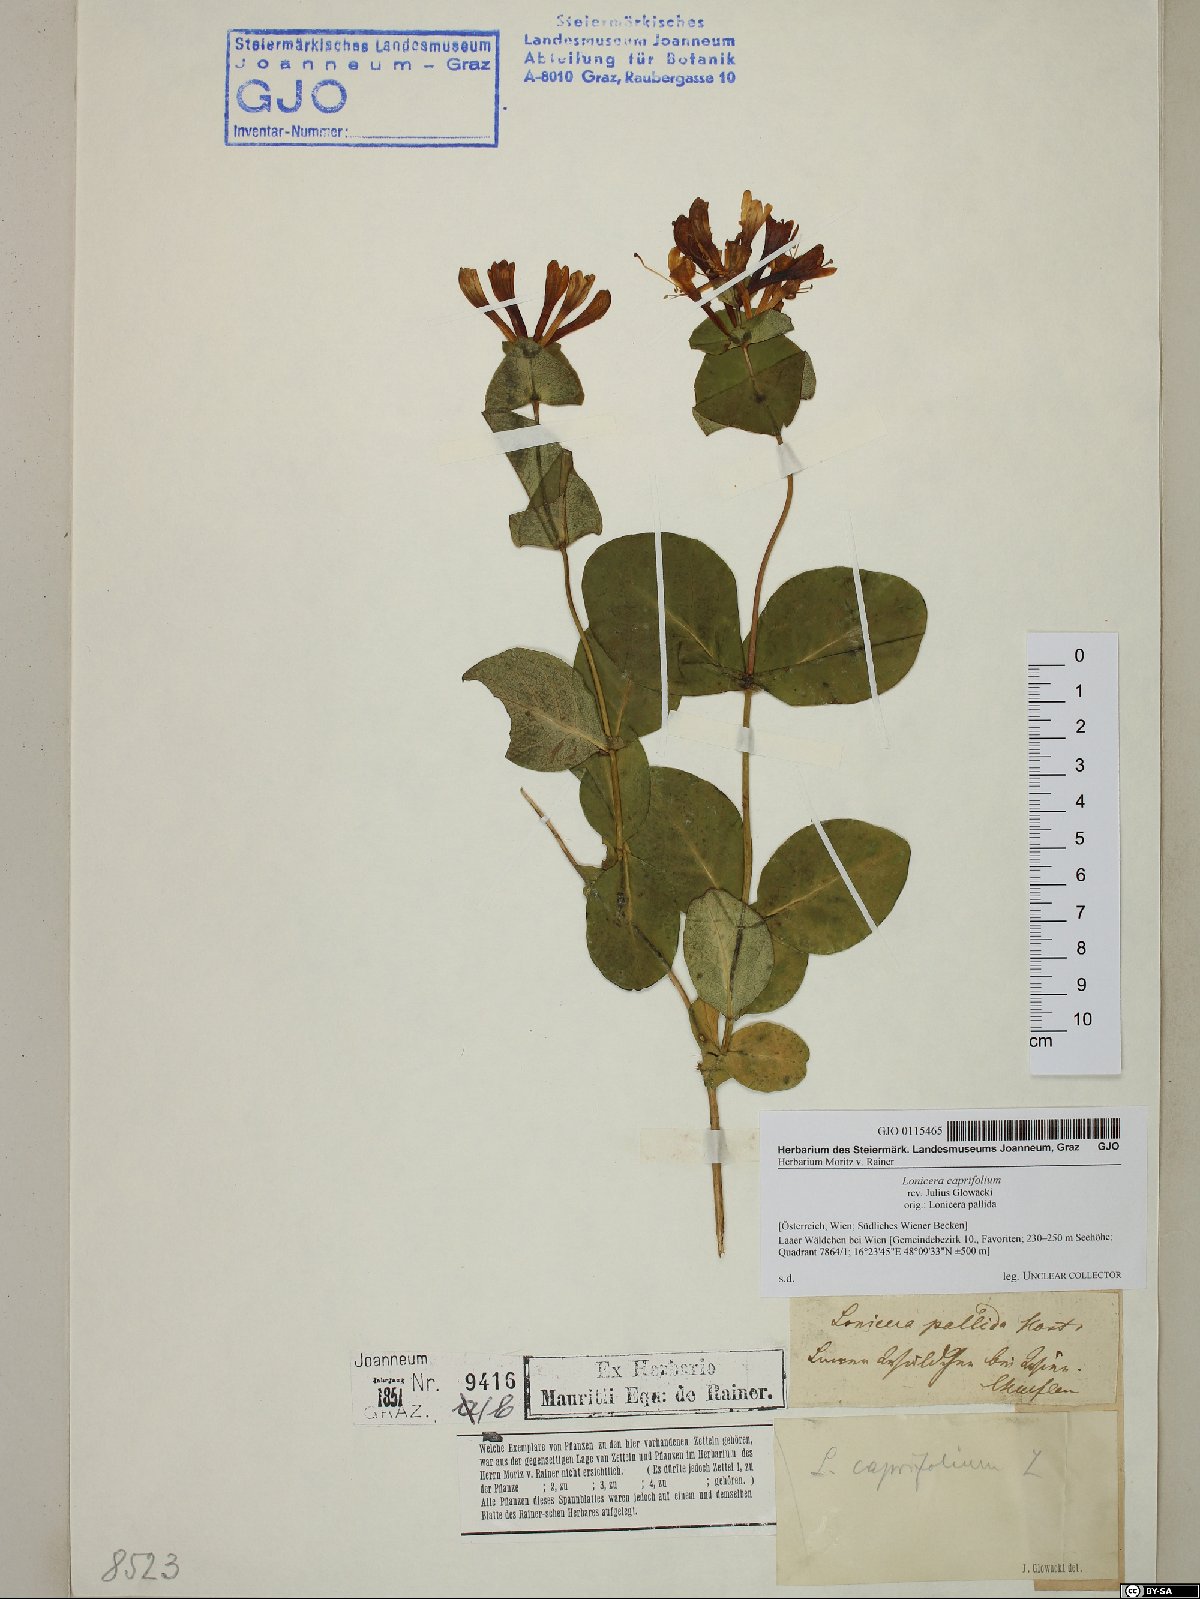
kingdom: Plantae
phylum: Tracheophyta
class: Magnoliopsida
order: Dipsacales
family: Caprifoliaceae
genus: Lonicera
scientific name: Lonicera caprifolium
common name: Perfoliate honeysuckle
